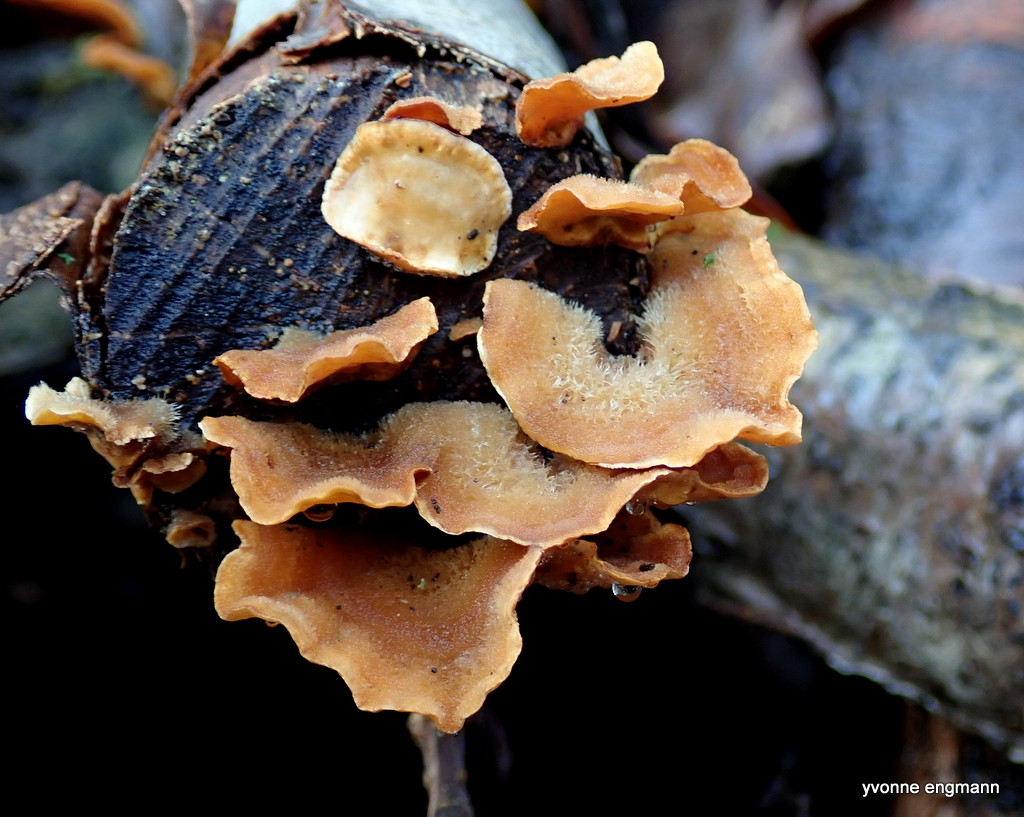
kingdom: Fungi
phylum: Basidiomycota
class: Agaricomycetes
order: Russulales
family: Stereaceae
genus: Stereum
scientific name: Stereum hirsutum
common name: håret lædersvamp
